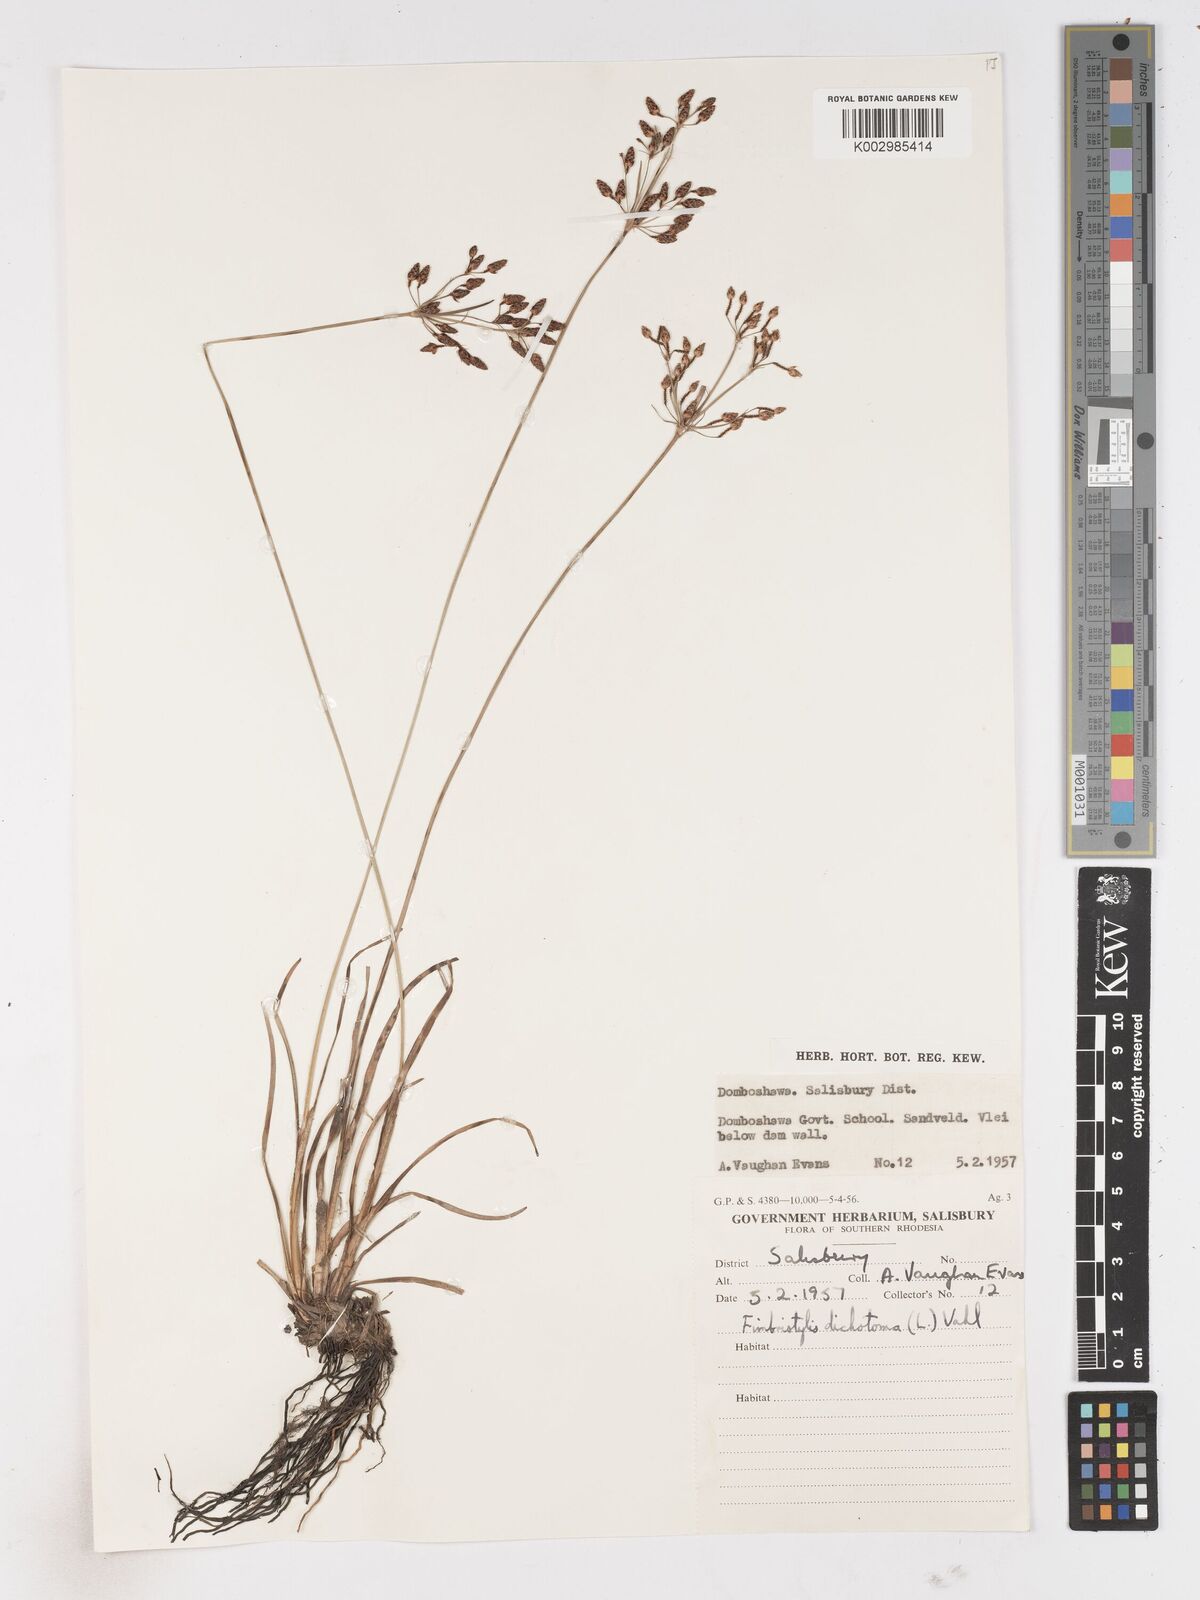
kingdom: Plantae
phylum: Tracheophyta
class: Liliopsida
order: Poales
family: Cyperaceae
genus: Fimbristylis
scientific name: Fimbristylis
